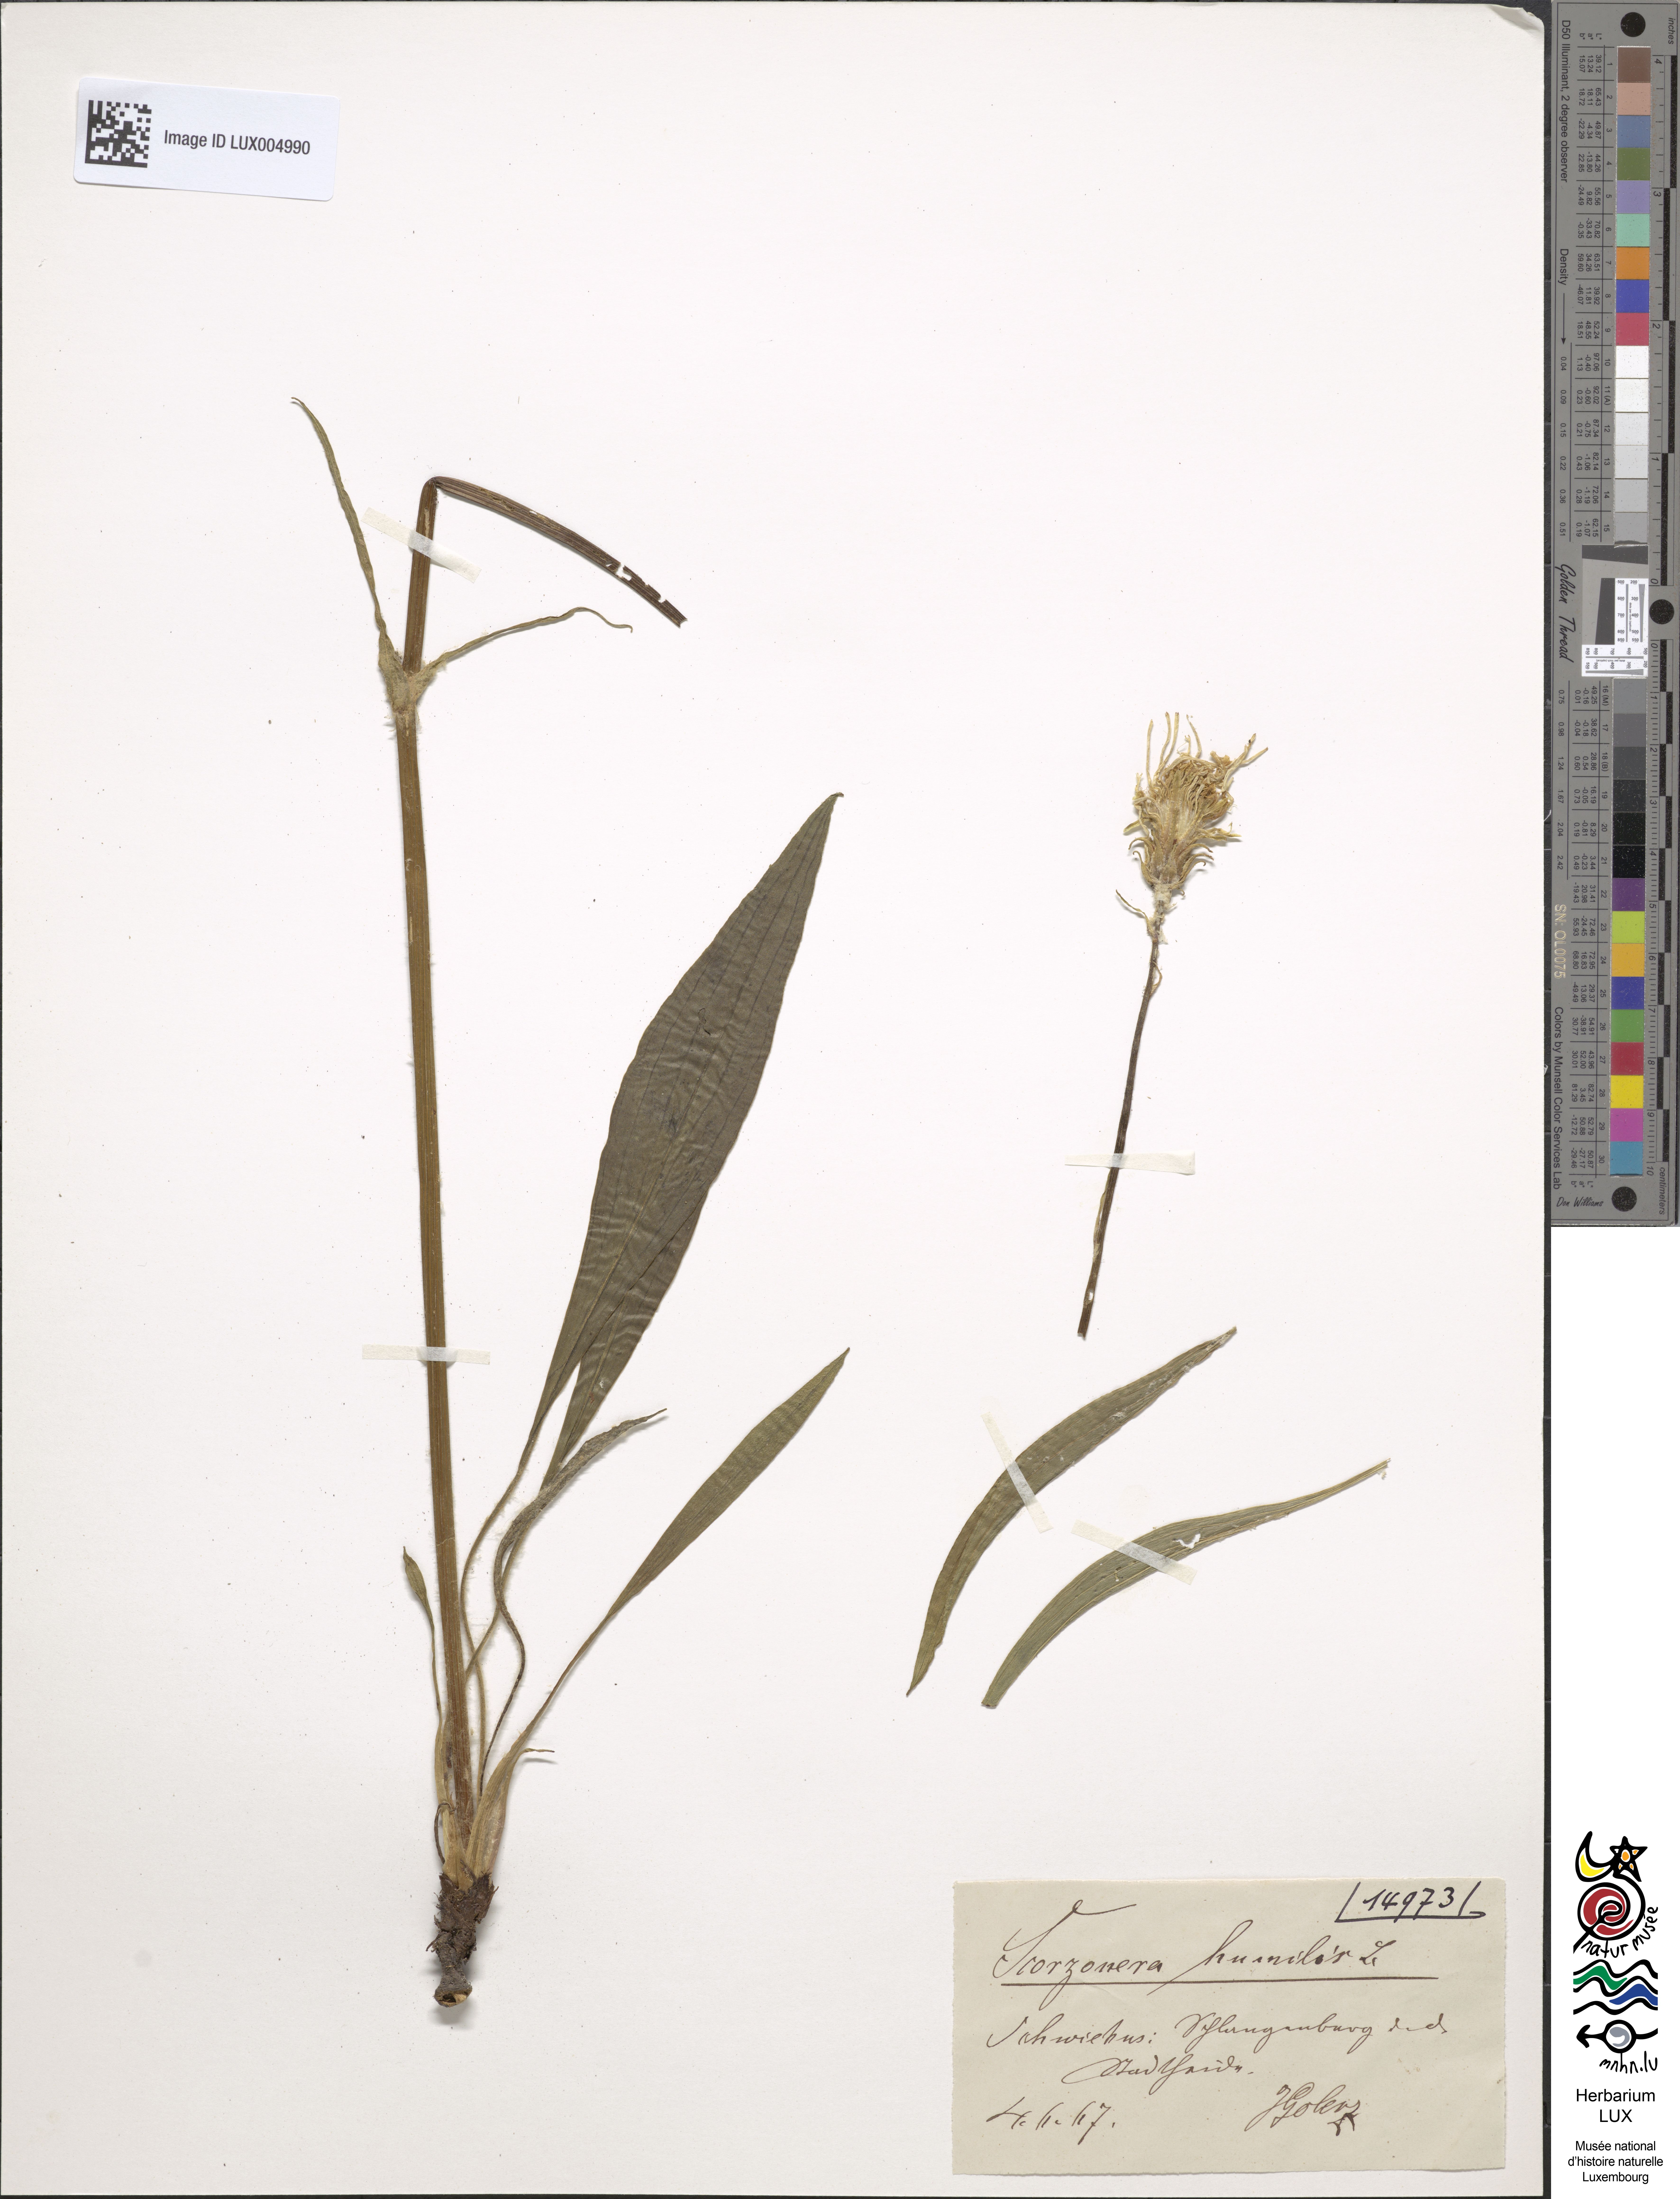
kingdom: Plantae
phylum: Tracheophyta
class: Magnoliopsida
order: Asterales
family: Asteraceae
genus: Scorzonera
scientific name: Scorzonera humilis
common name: Viper's-grass
